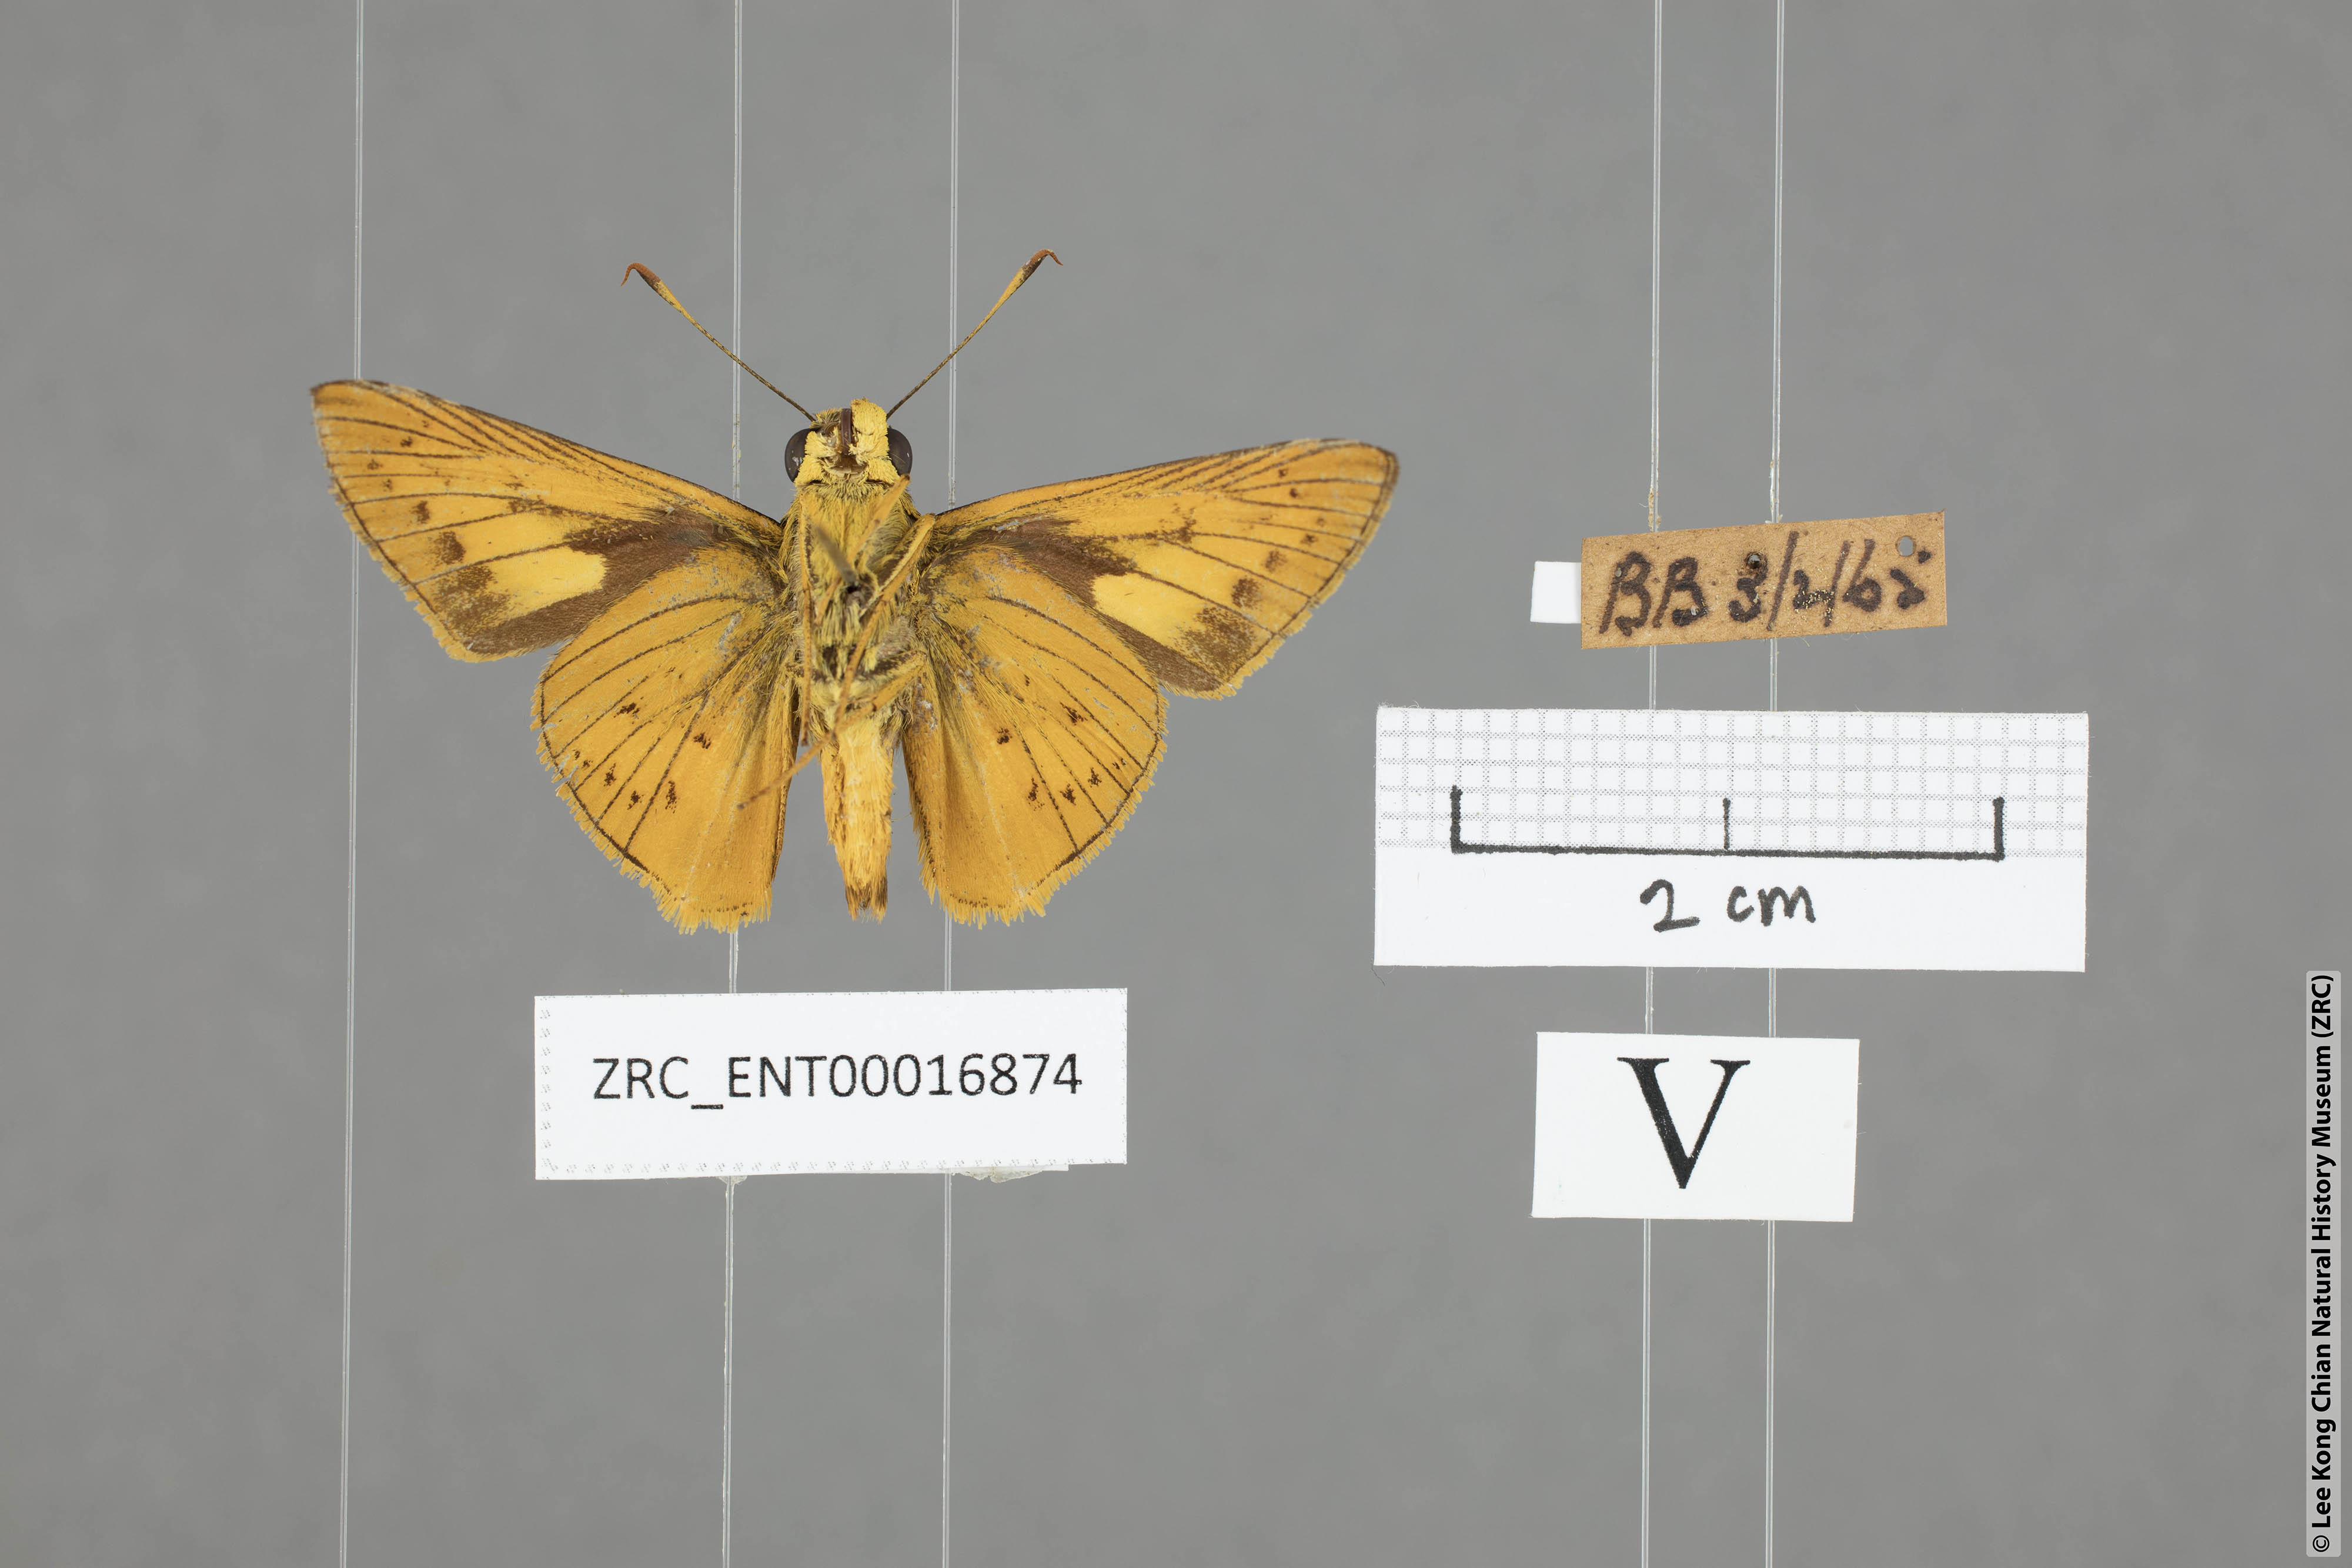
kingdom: Animalia
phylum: Arthropoda
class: Insecta
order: Lepidoptera
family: Hesperiidae
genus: Cephrenes
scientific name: Cephrenes
